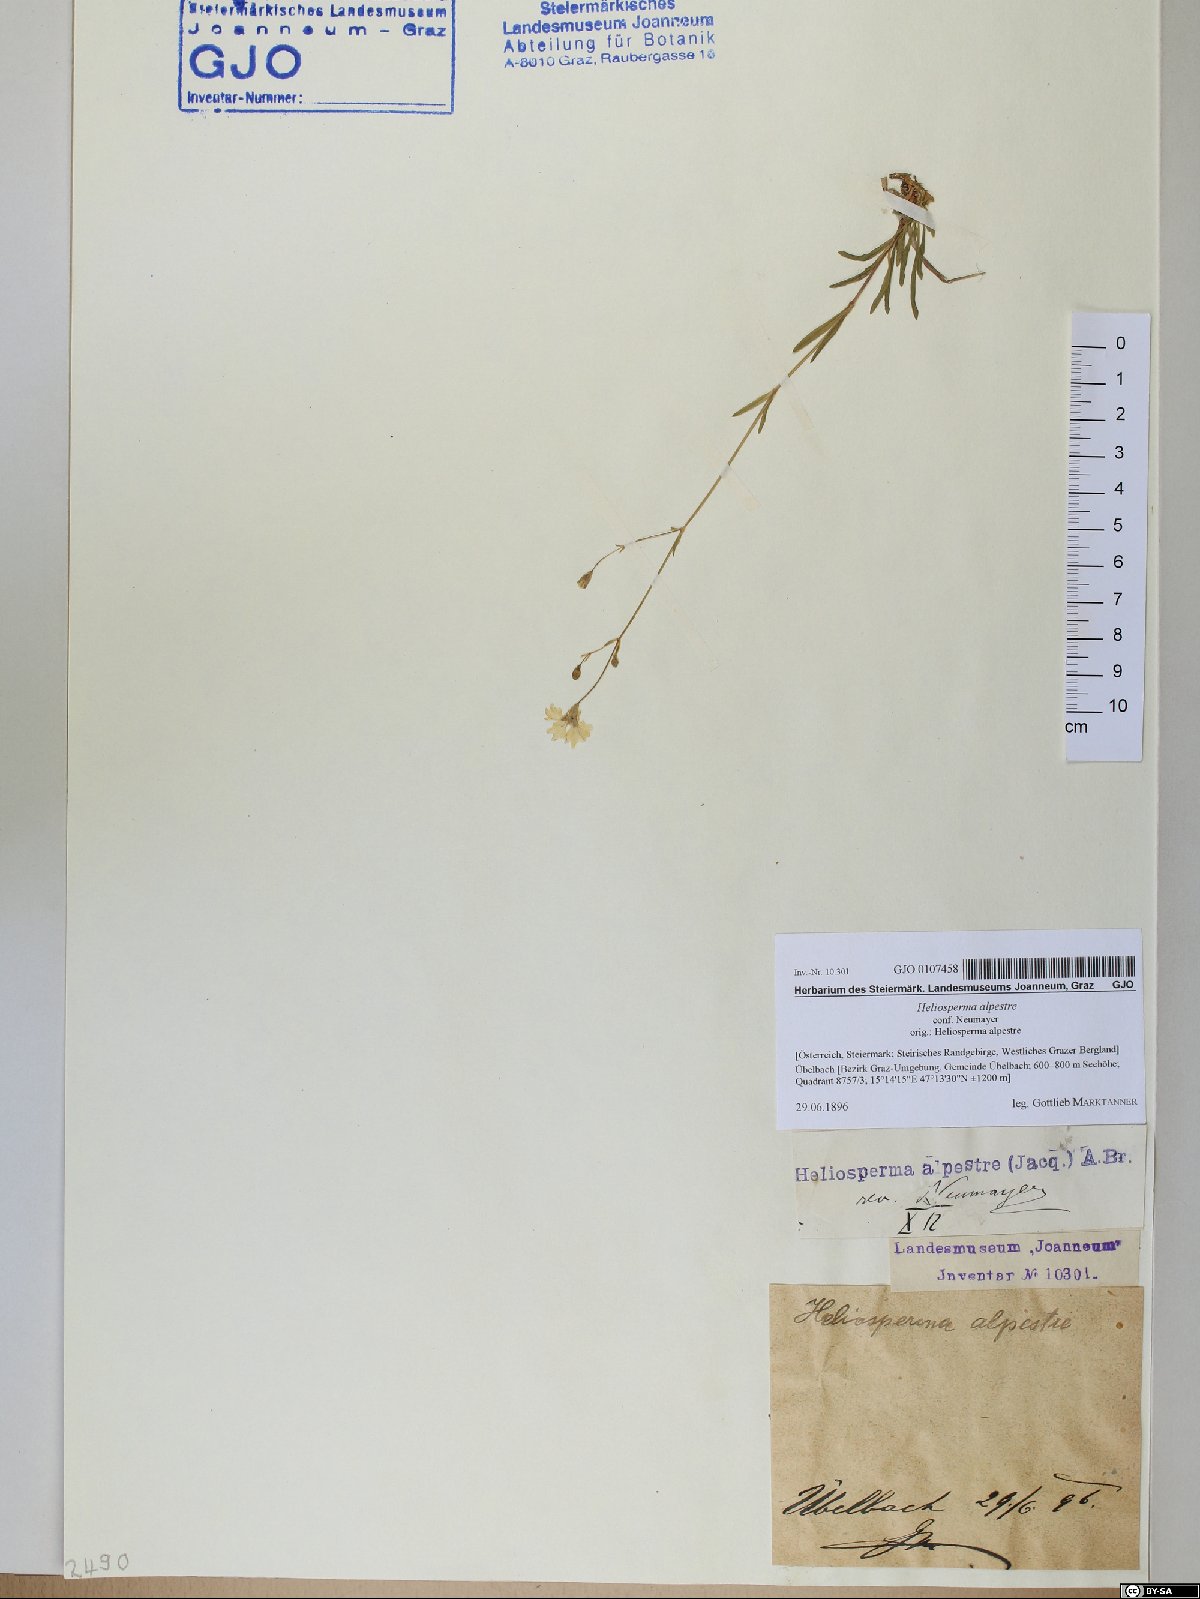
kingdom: Plantae
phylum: Tracheophyta
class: Magnoliopsida
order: Caryophyllales
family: Caryophyllaceae
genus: Heliosperma
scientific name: Heliosperma alpestre
